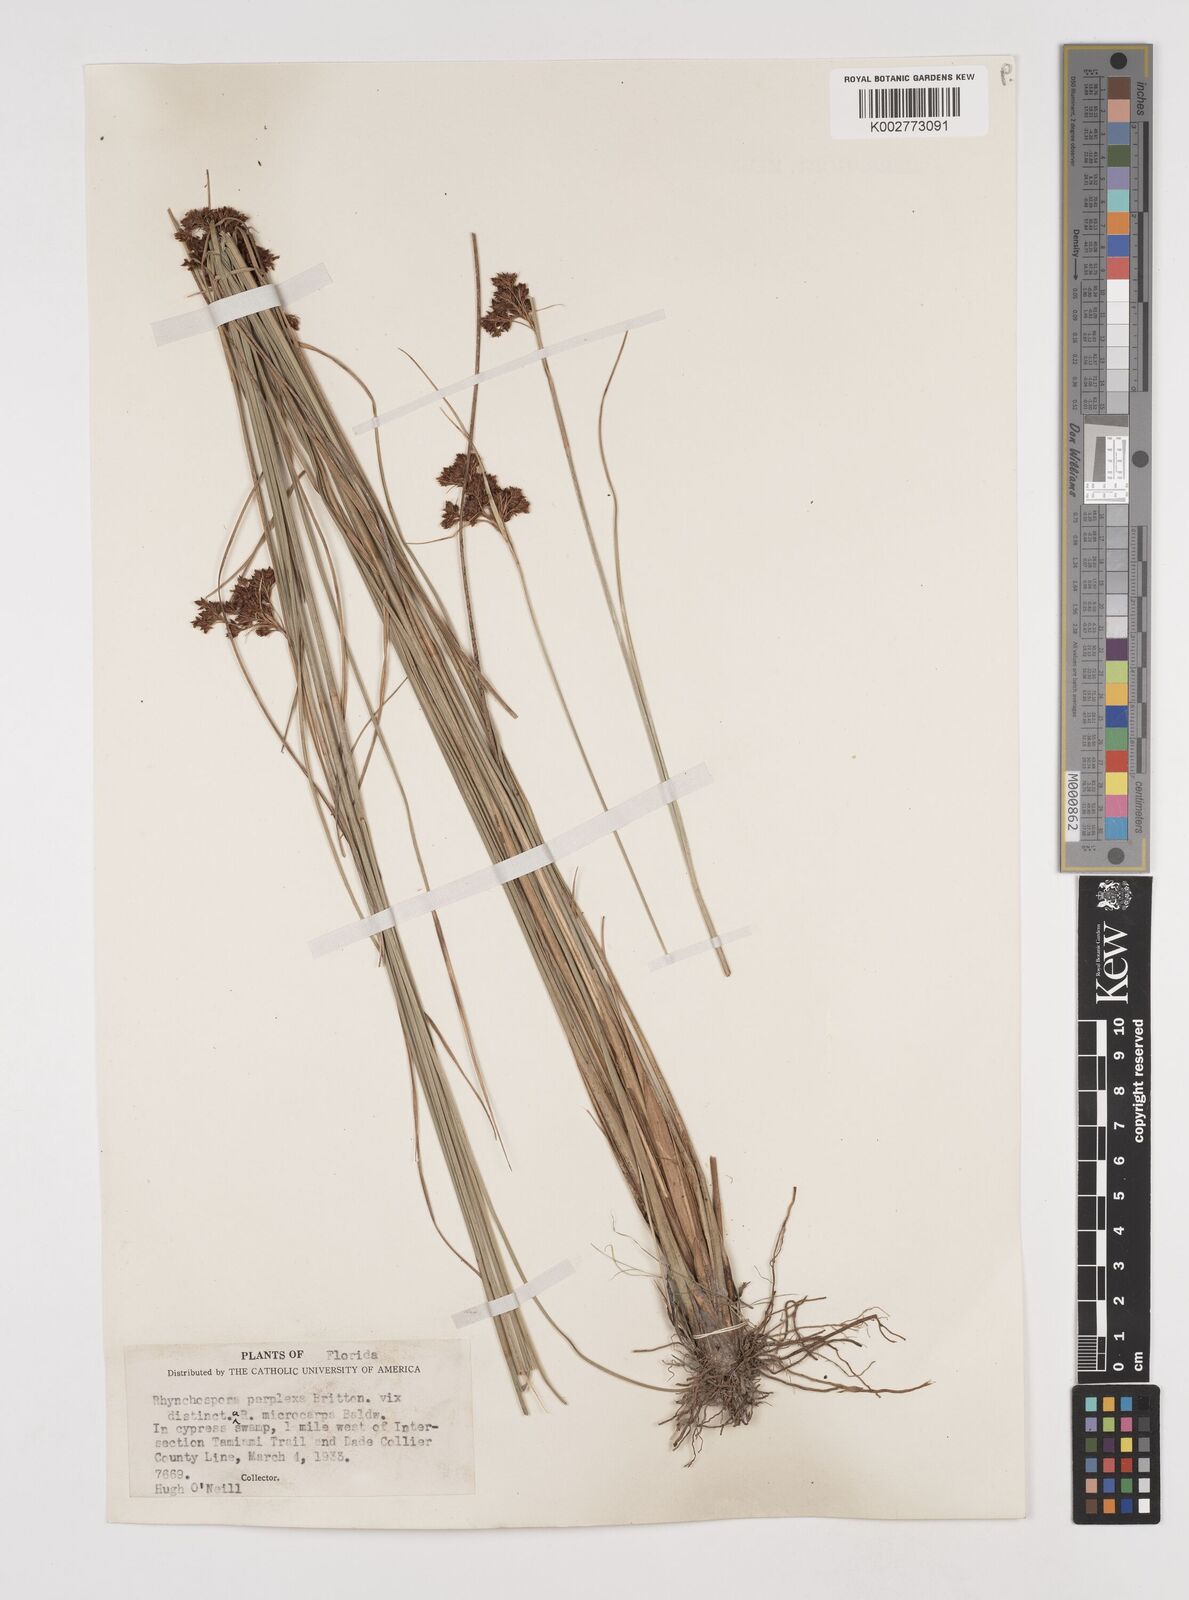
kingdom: Plantae
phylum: Tracheophyta
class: Liliopsida
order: Poales
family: Cyperaceae
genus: Rhynchospora
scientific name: Rhynchospora perplexa
